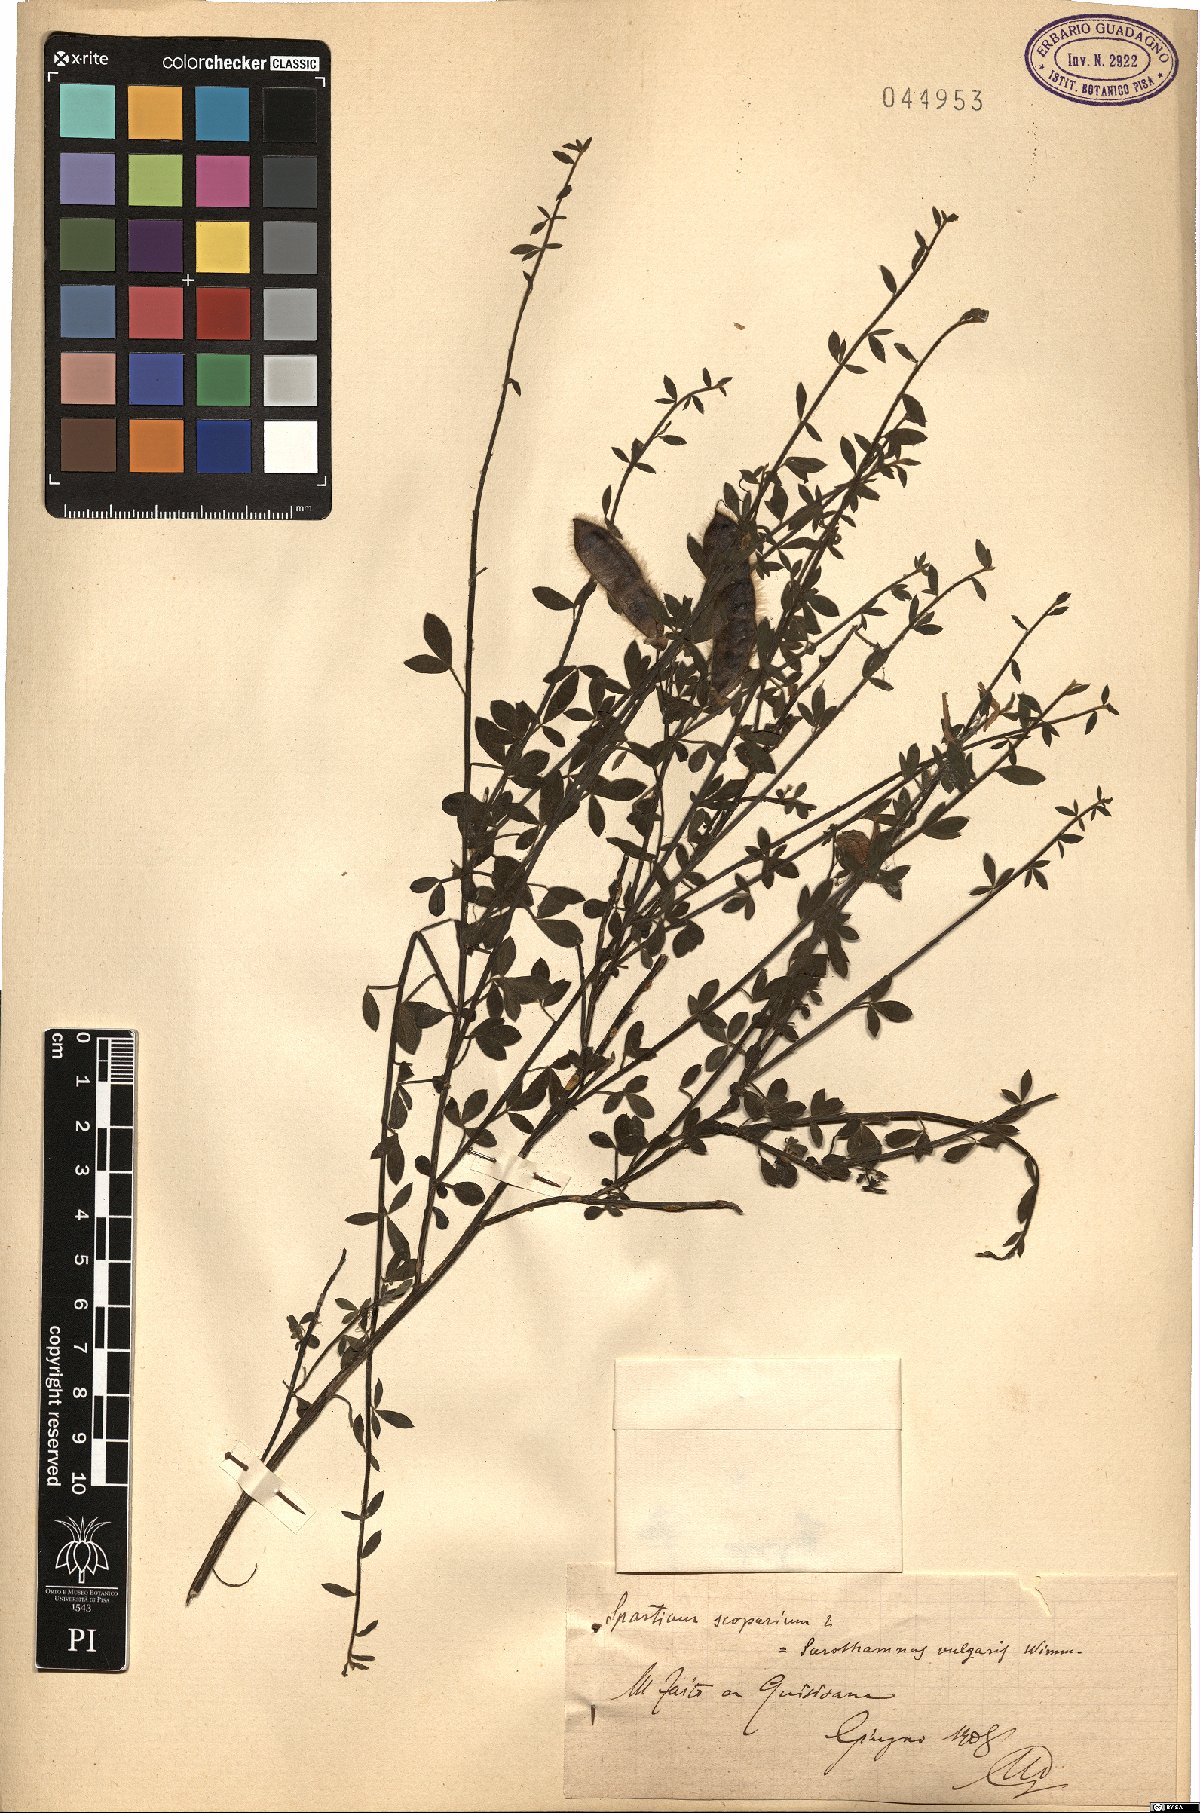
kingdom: Plantae
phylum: Tracheophyta
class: Magnoliopsida
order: Fabales
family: Fabaceae
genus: Lebeckia
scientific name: Lebeckia sepiaria
